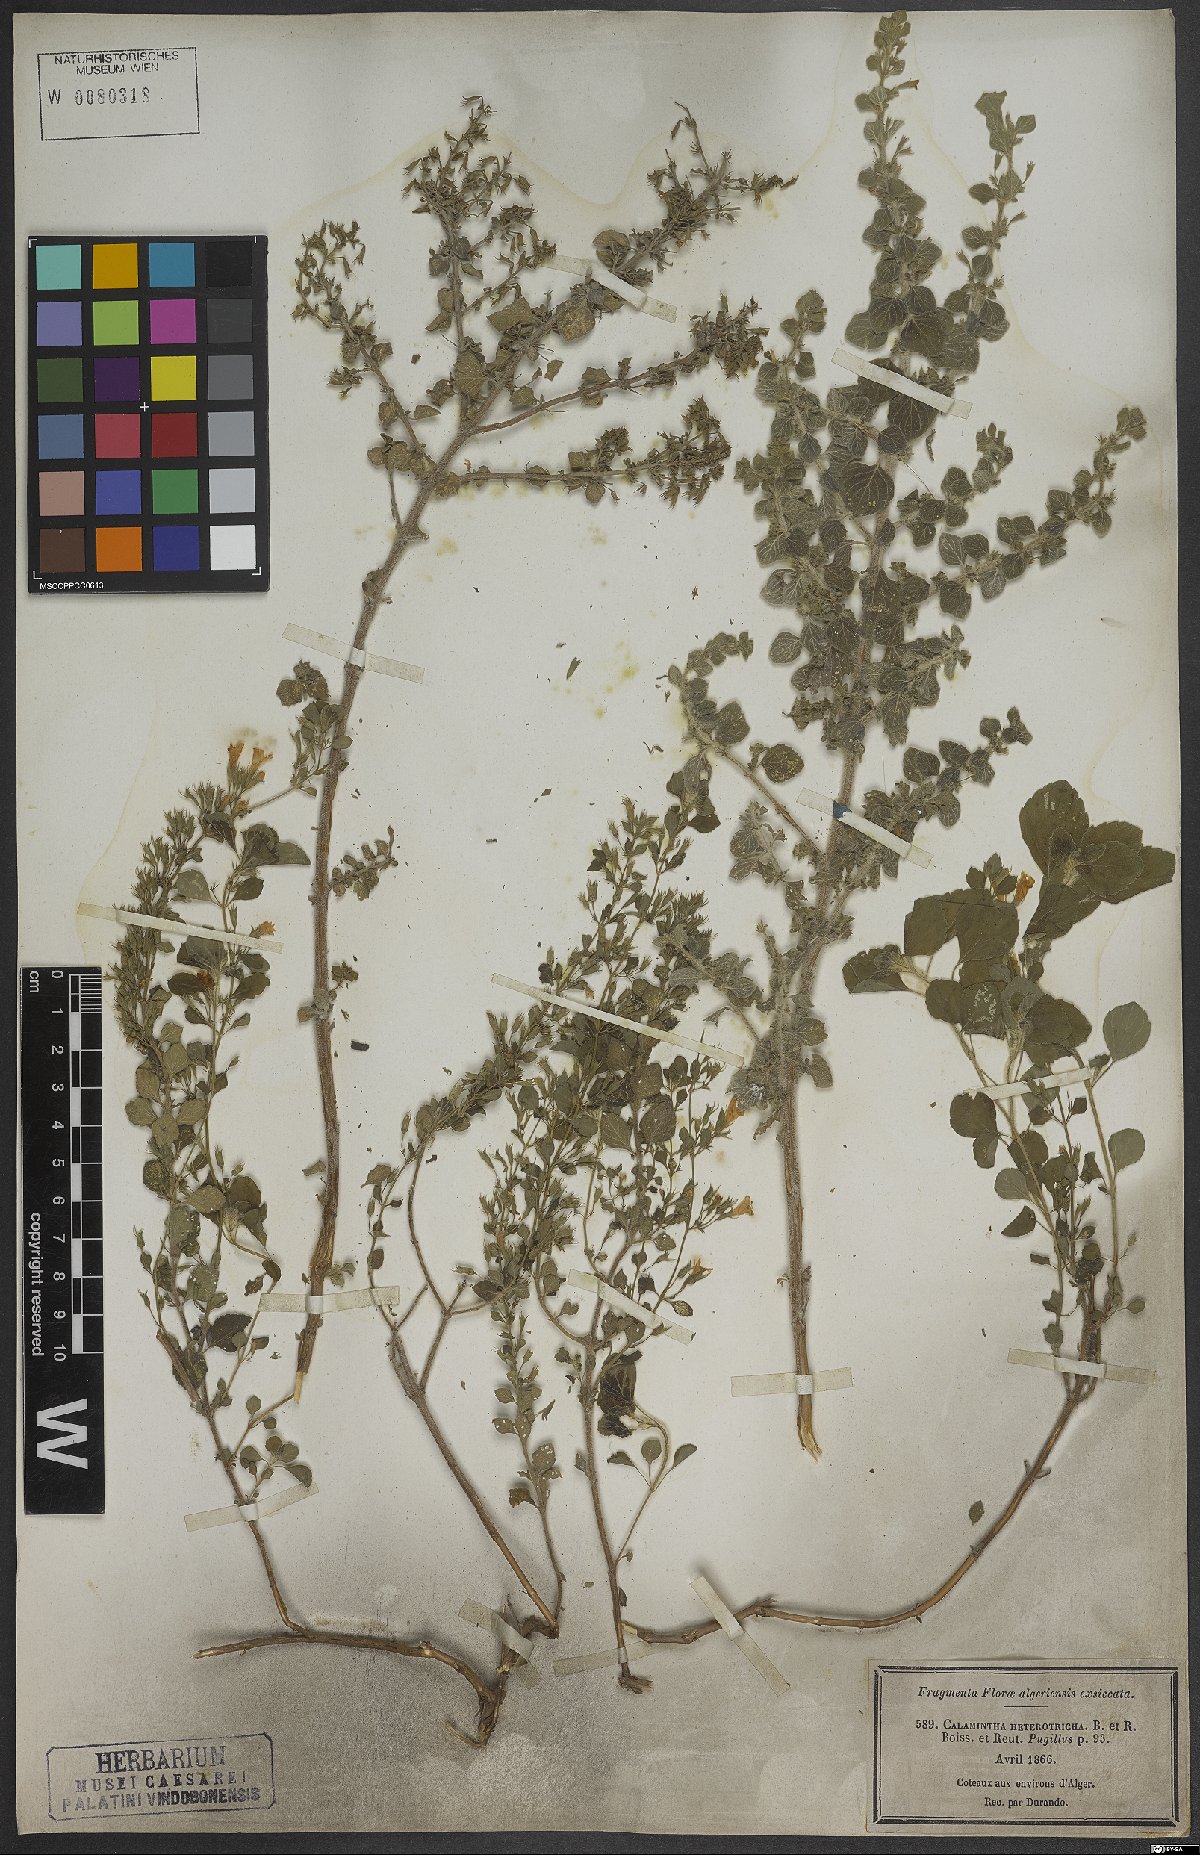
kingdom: Plantae
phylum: Tracheophyta
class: Magnoliopsida
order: Lamiales
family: Lamiaceae
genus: Clinopodium
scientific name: Clinopodium heterotrichum
